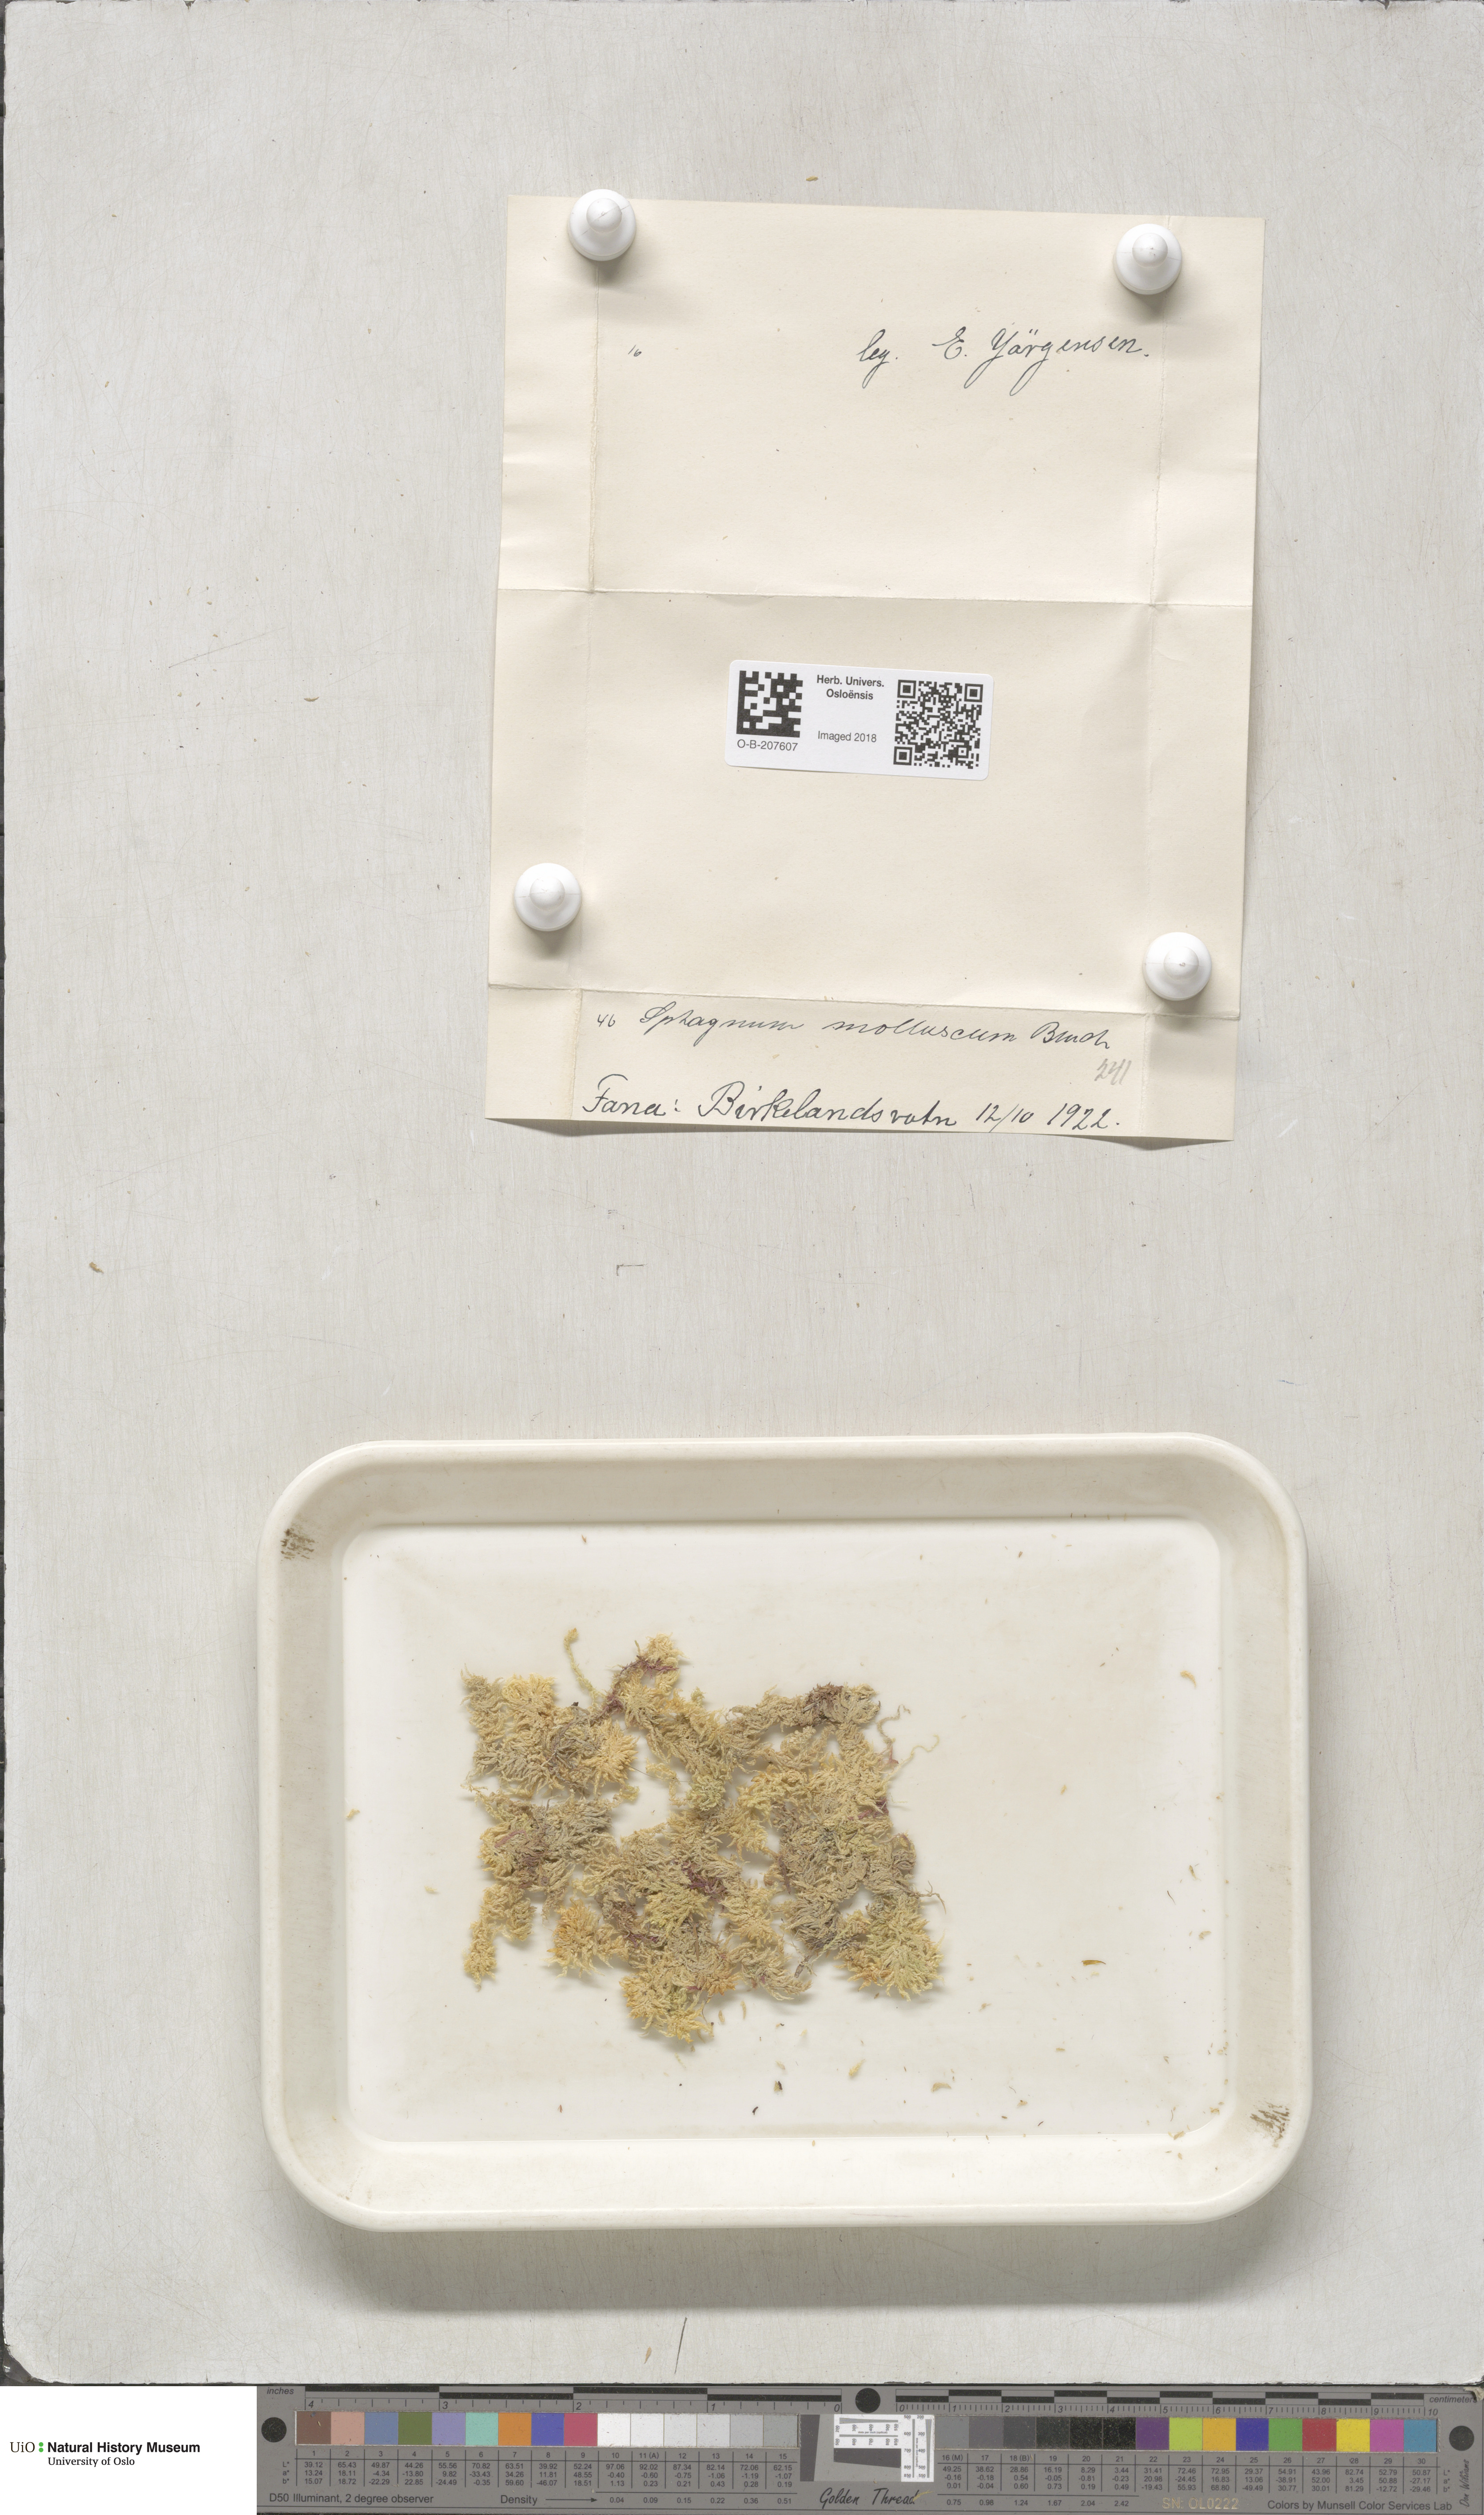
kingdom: Plantae
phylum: Bryophyta
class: Sphagnopsida
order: Sphagnales
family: Sphagnaceae
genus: Sphagnum
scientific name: Sphagnum tenellum
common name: Soft bog-moss
